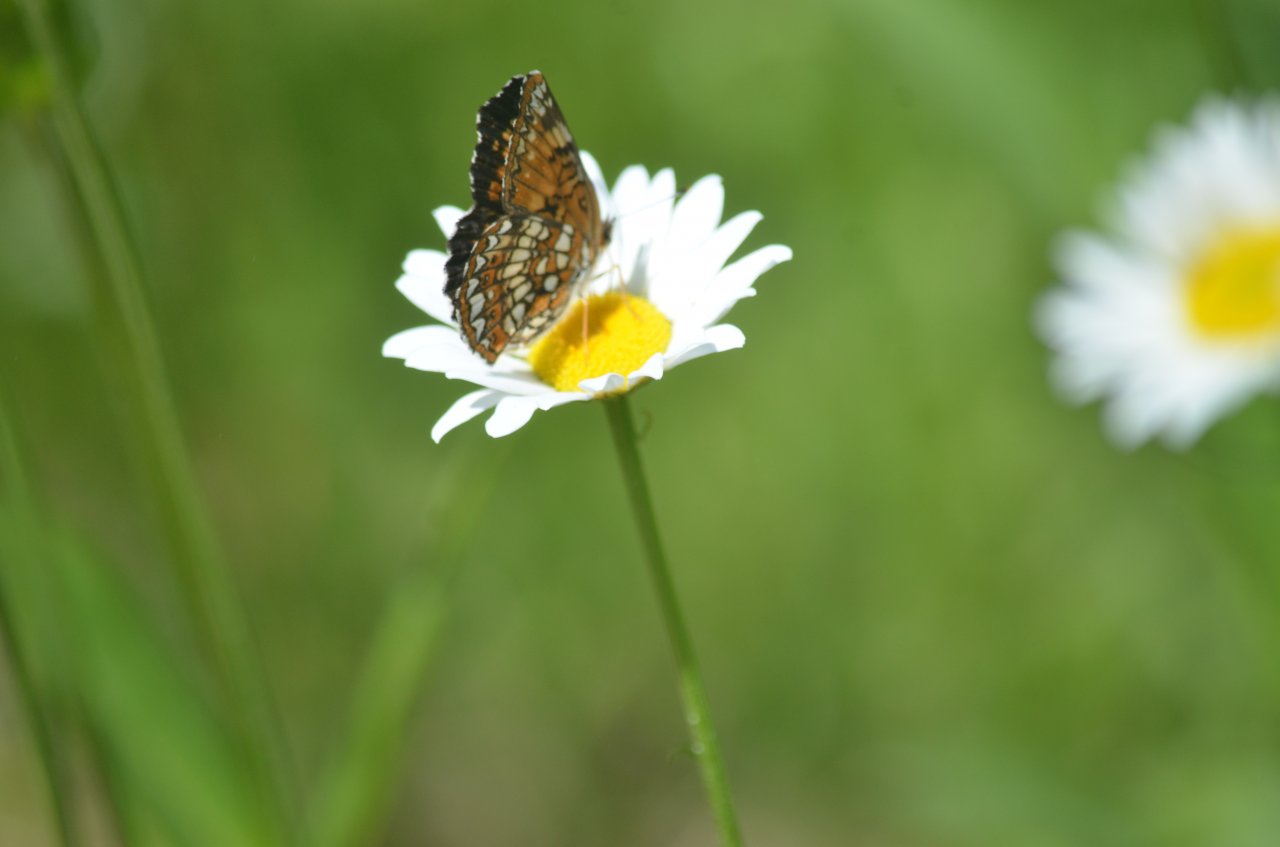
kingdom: Animalia
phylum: Arthropoda
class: Insecta
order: Lepidoptera
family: Nymphalidae
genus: Chlosyne
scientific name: Chlosyne harrisii
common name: Harris's Checkerspot
